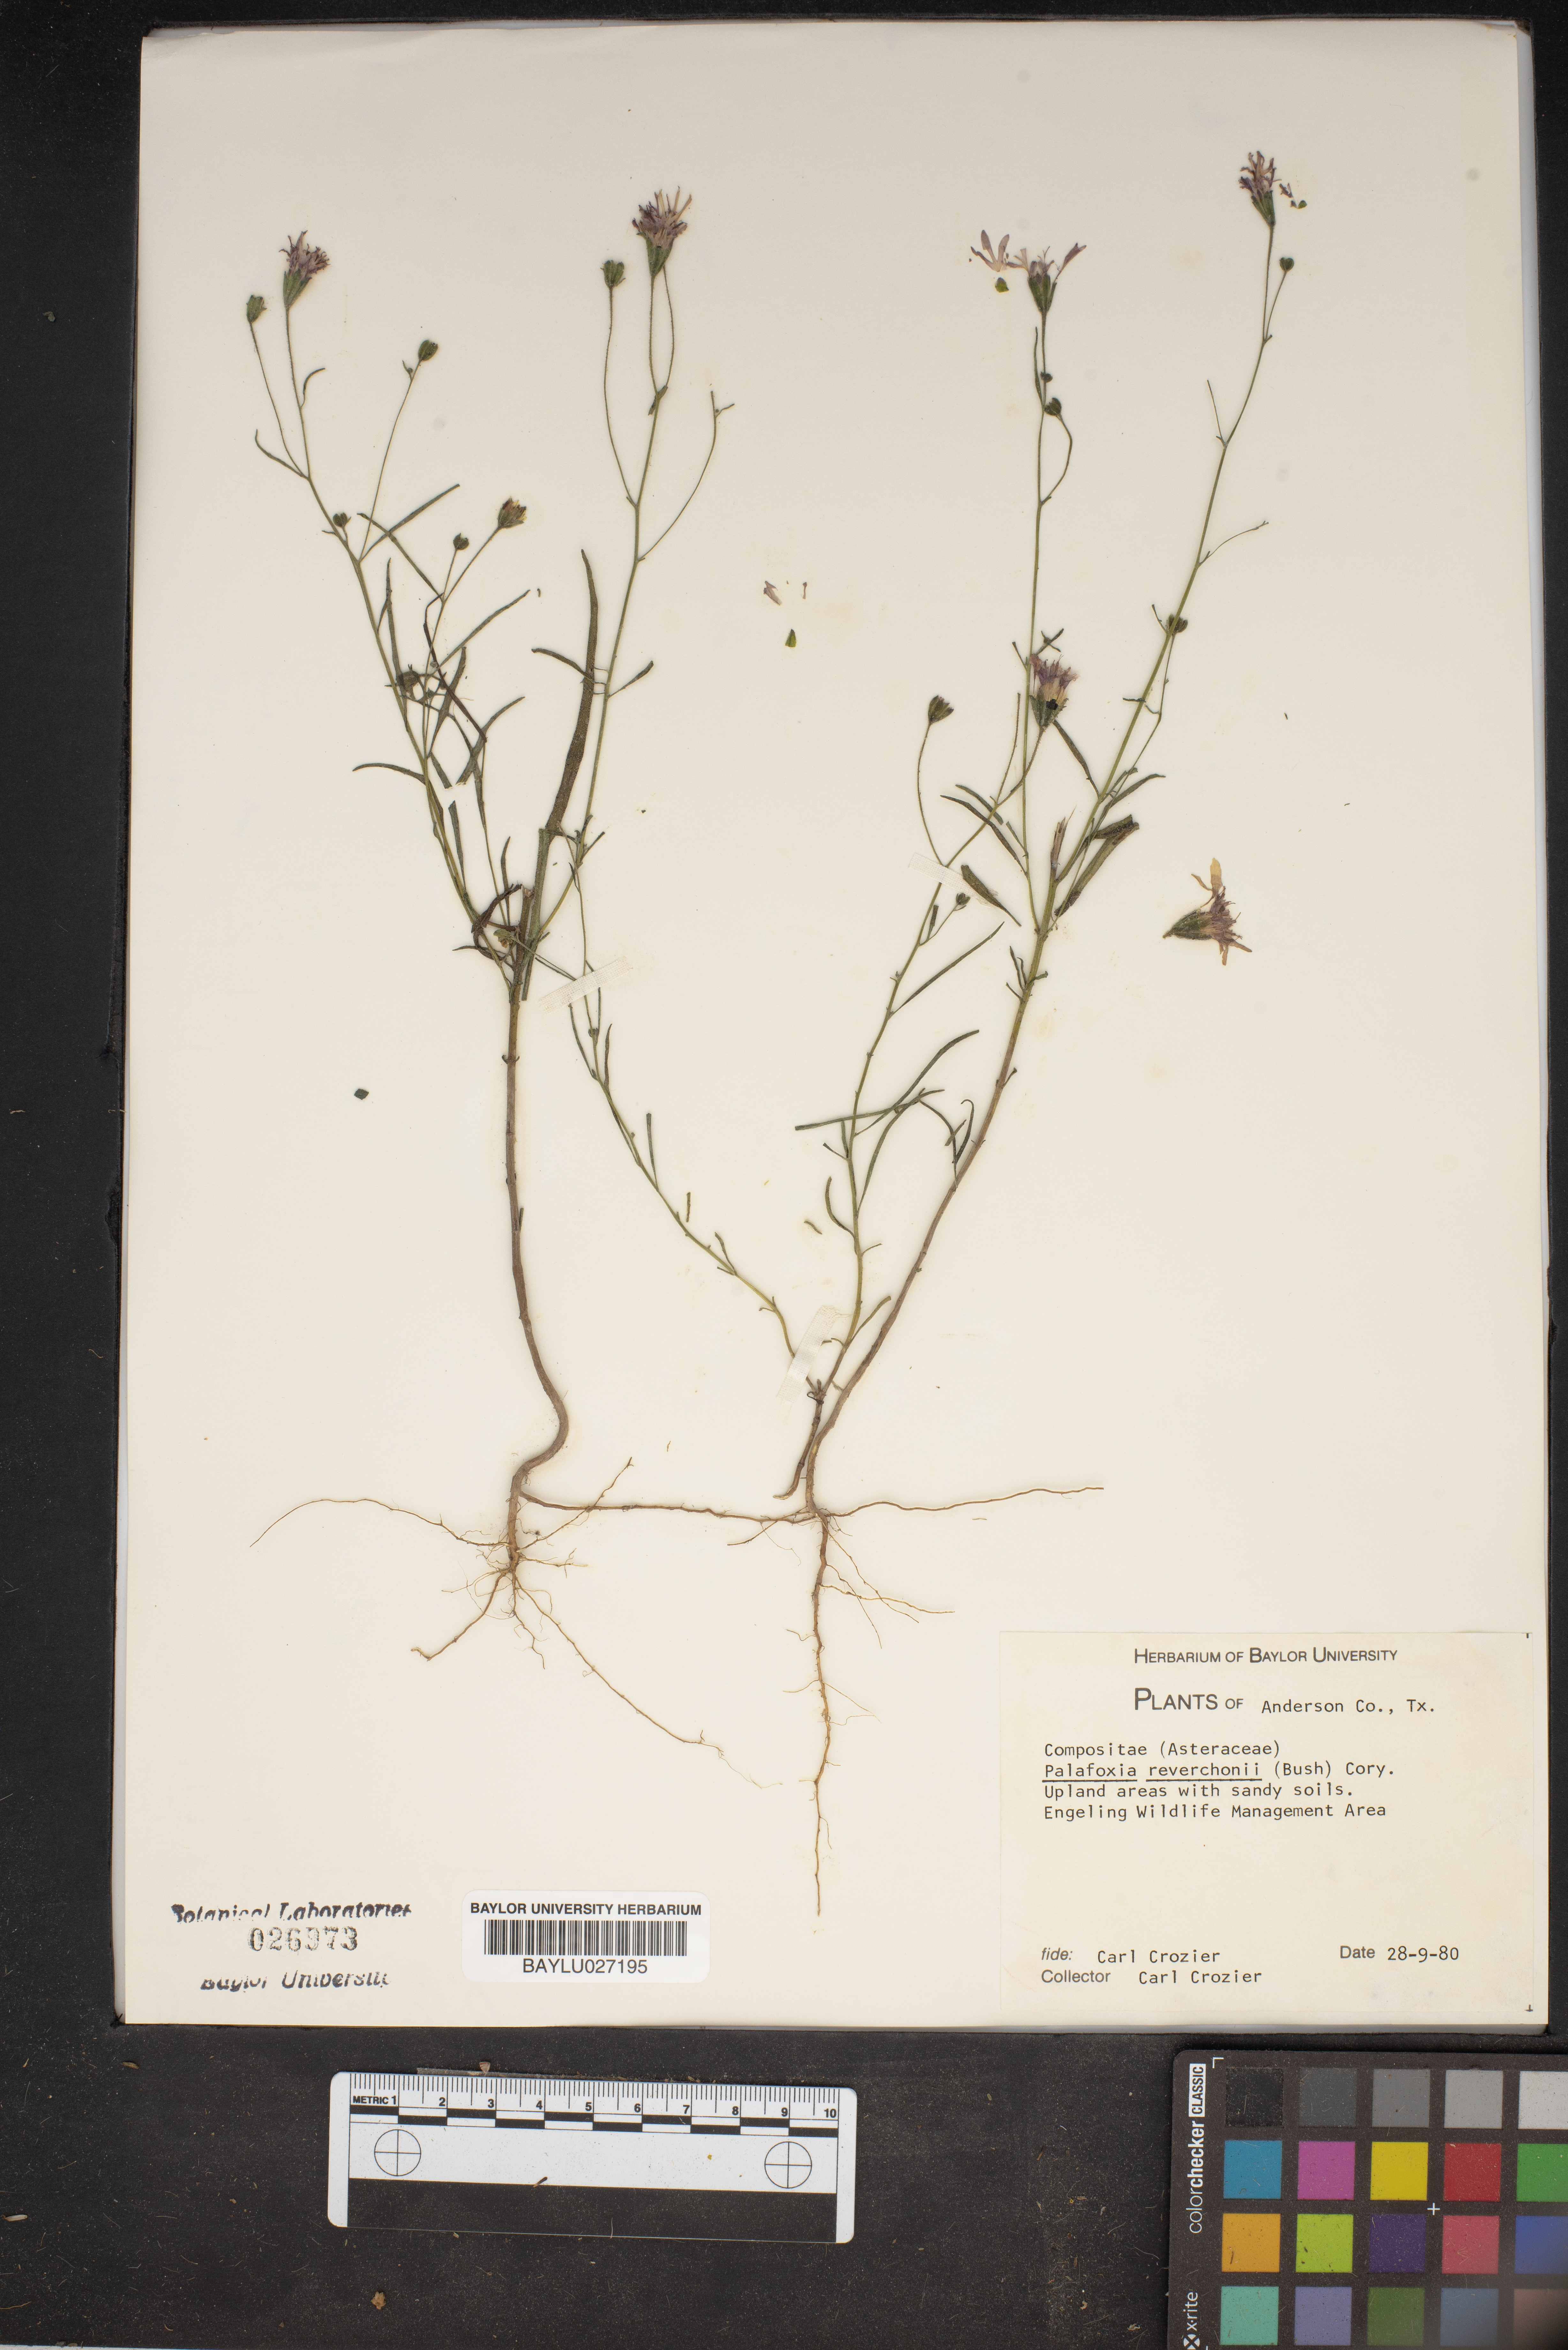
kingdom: Plantae
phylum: Tracheophyta
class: Magnoliopsida
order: Asterales
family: Asteraceae
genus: Palafoxia
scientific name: Palafoxia reverchonii
